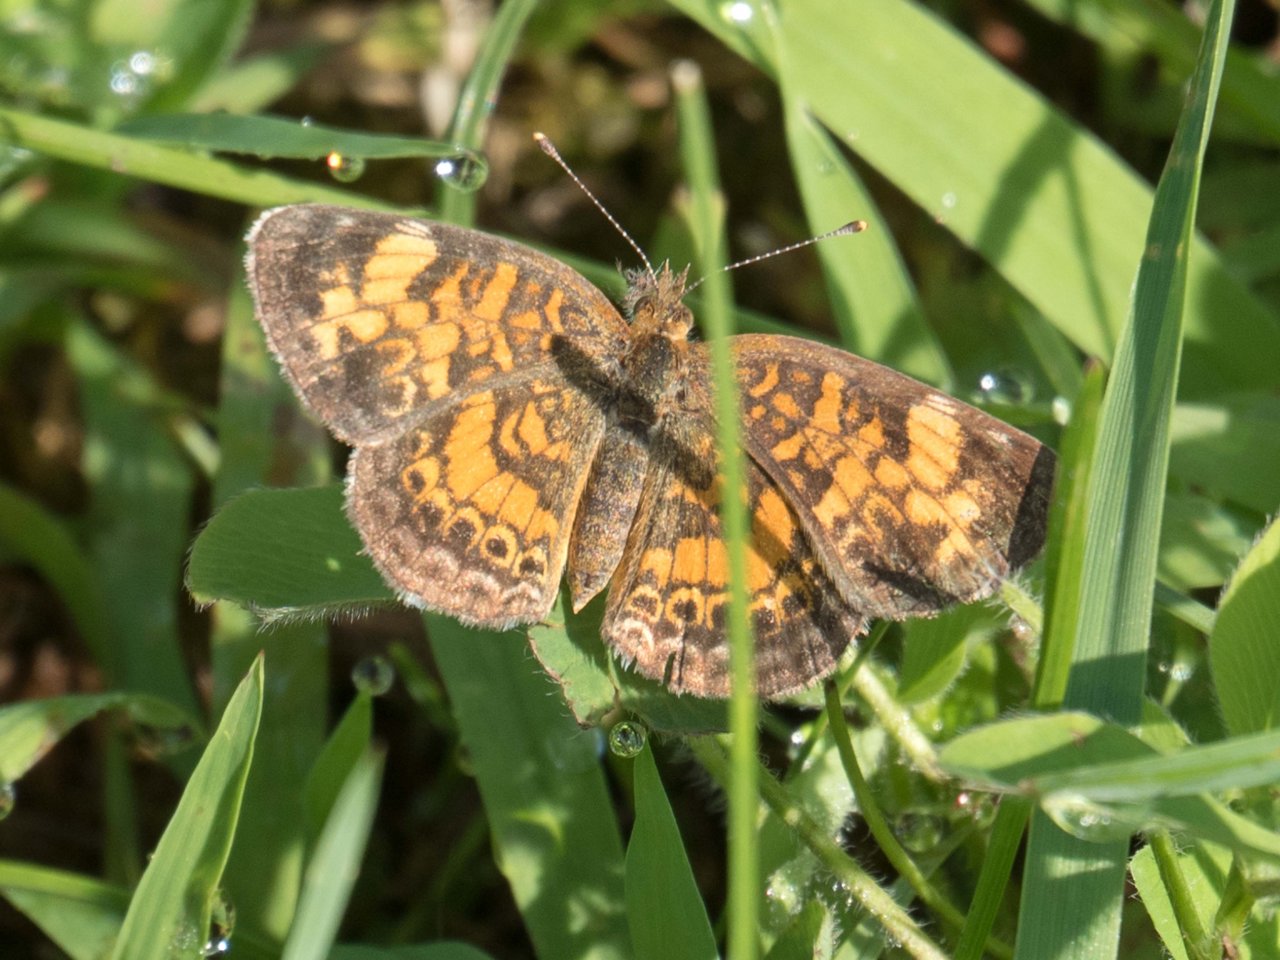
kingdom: Animalia
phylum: Arthropoda
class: Insecta
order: Lepidoptera
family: Nymphalidae
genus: Phyciodes
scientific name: Phyciodes
